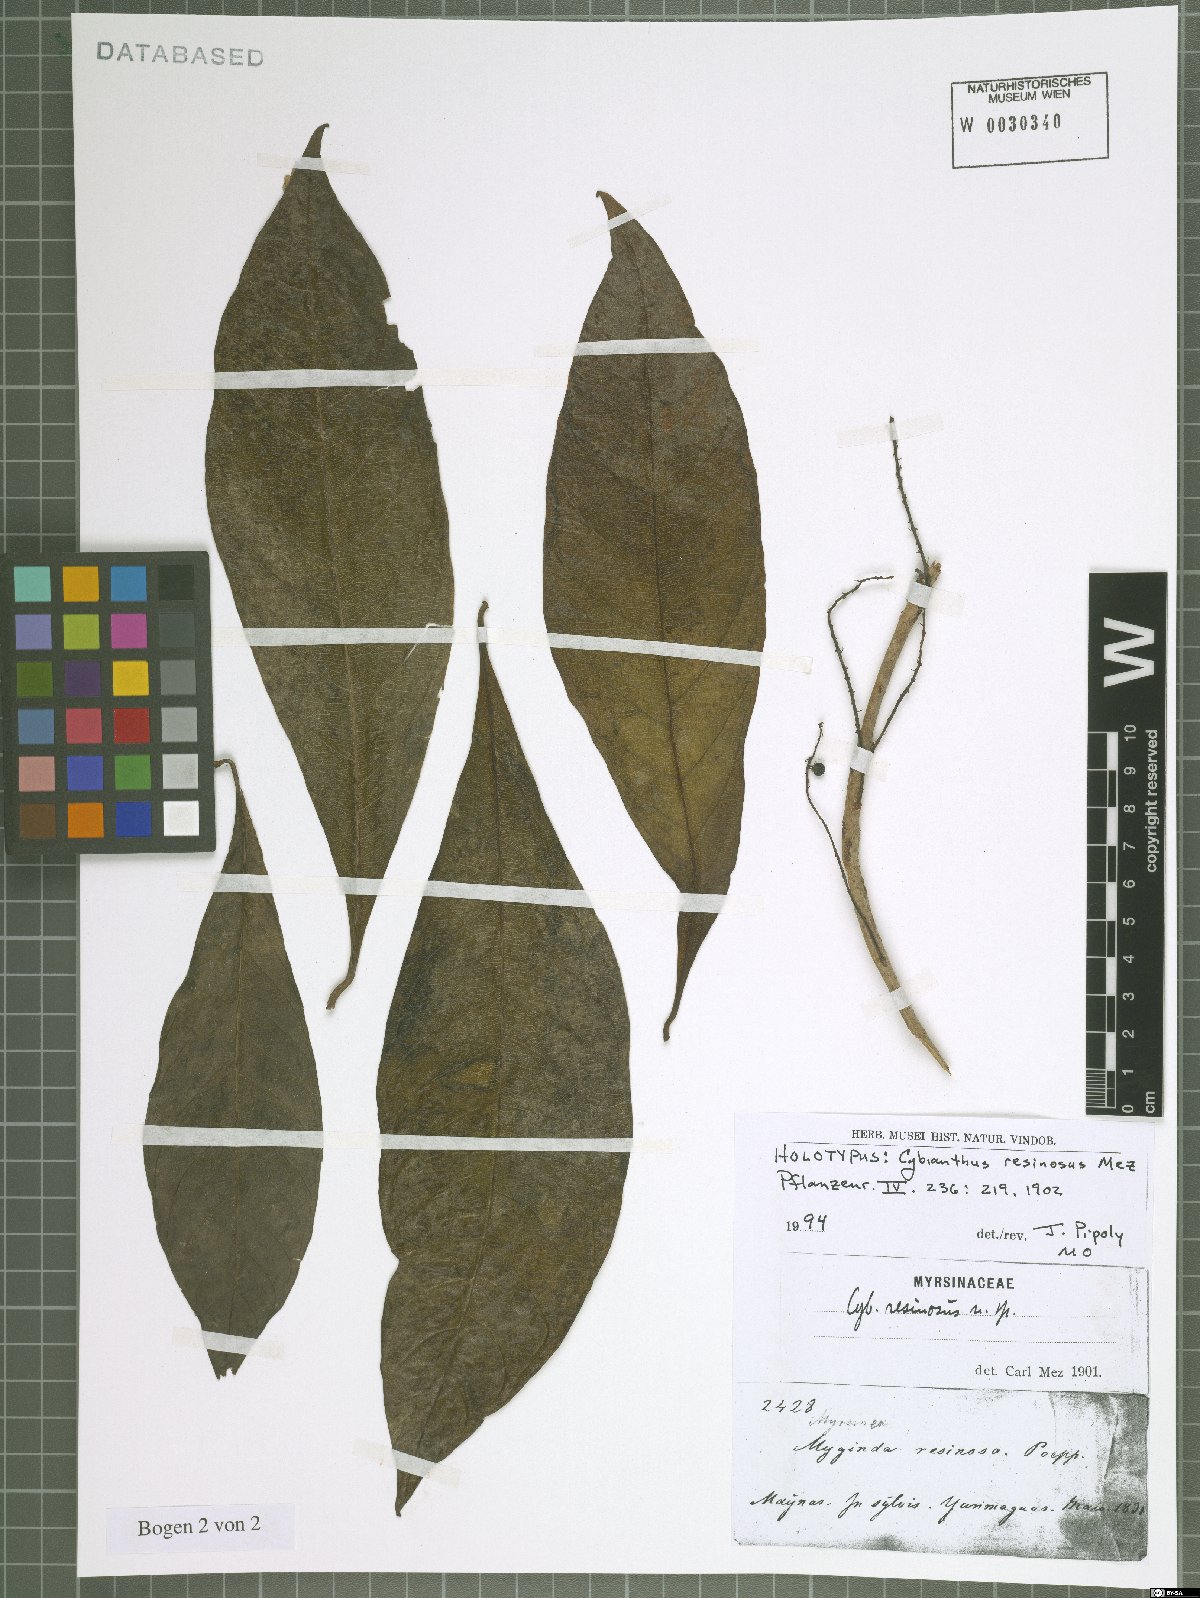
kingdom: Plantae
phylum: Tracheophyta
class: Magnoliopsida
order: Ericales
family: Primulaceae
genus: Cybianthus
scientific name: Cybianthus resinosus
